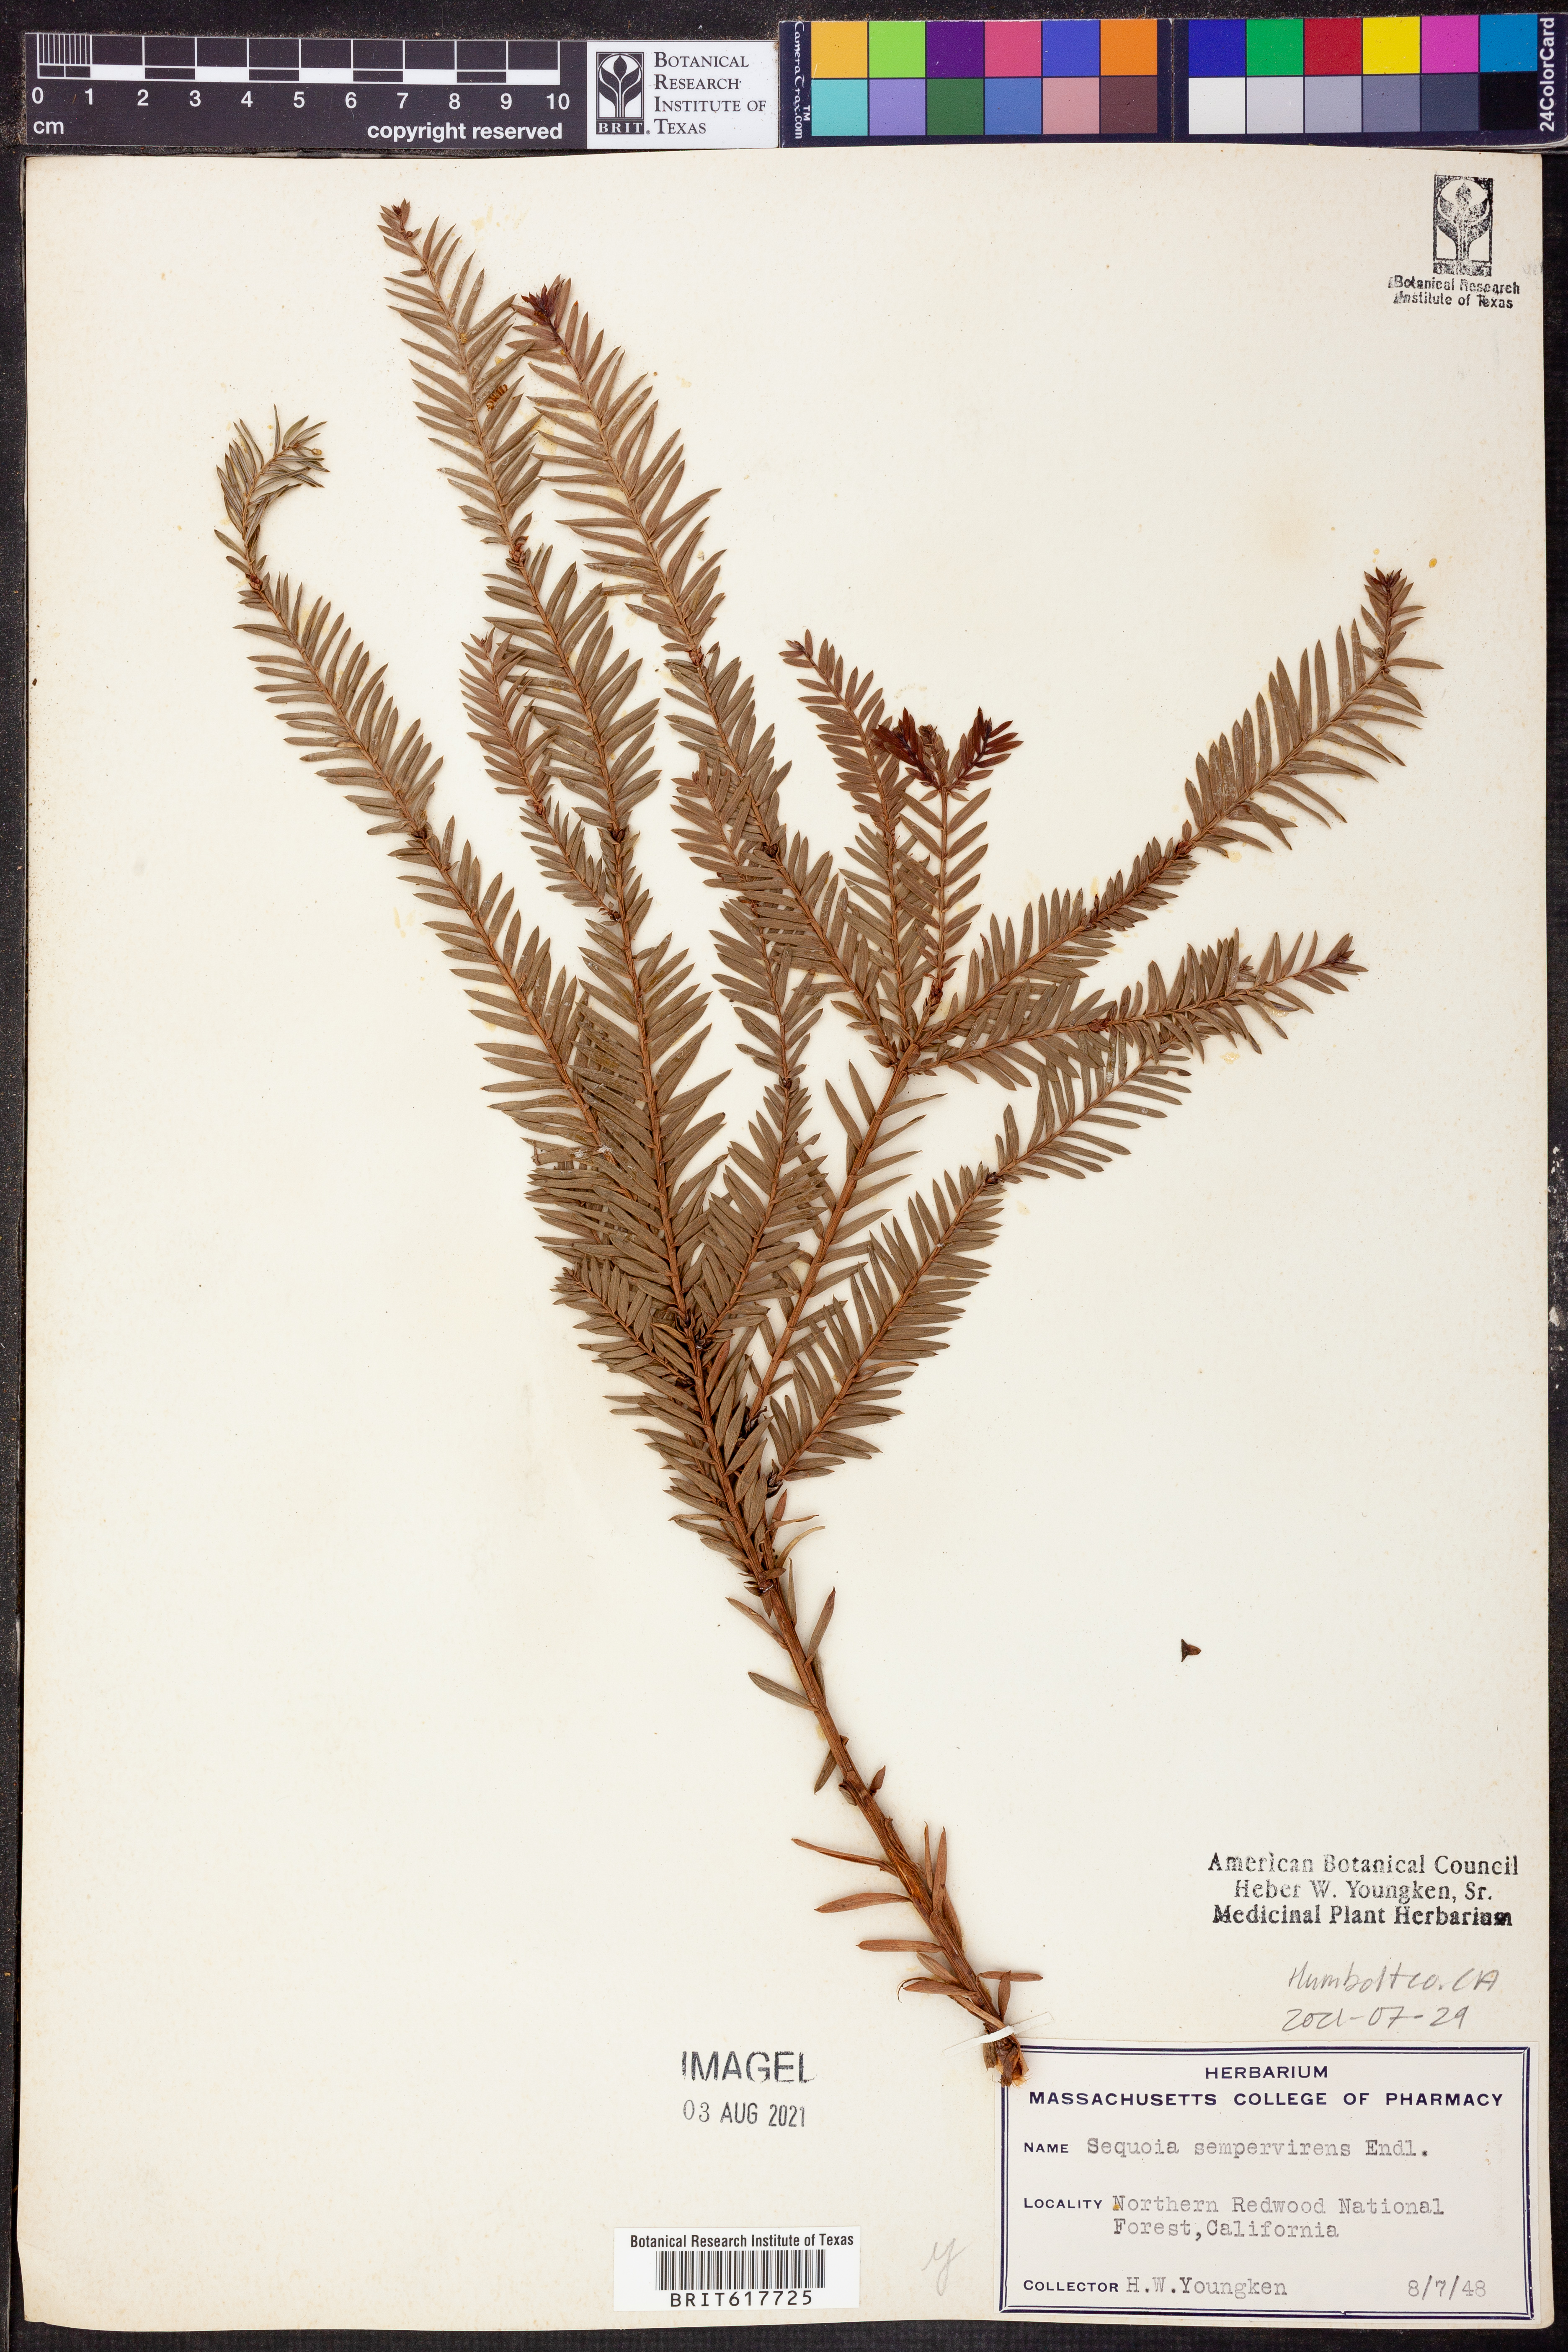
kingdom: Plantae
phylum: Tracheophyta
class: Pinopsida
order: Pinales
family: Cupressaceae
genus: Sequoia
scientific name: Sequoia sempervirens
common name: Coast redwood
